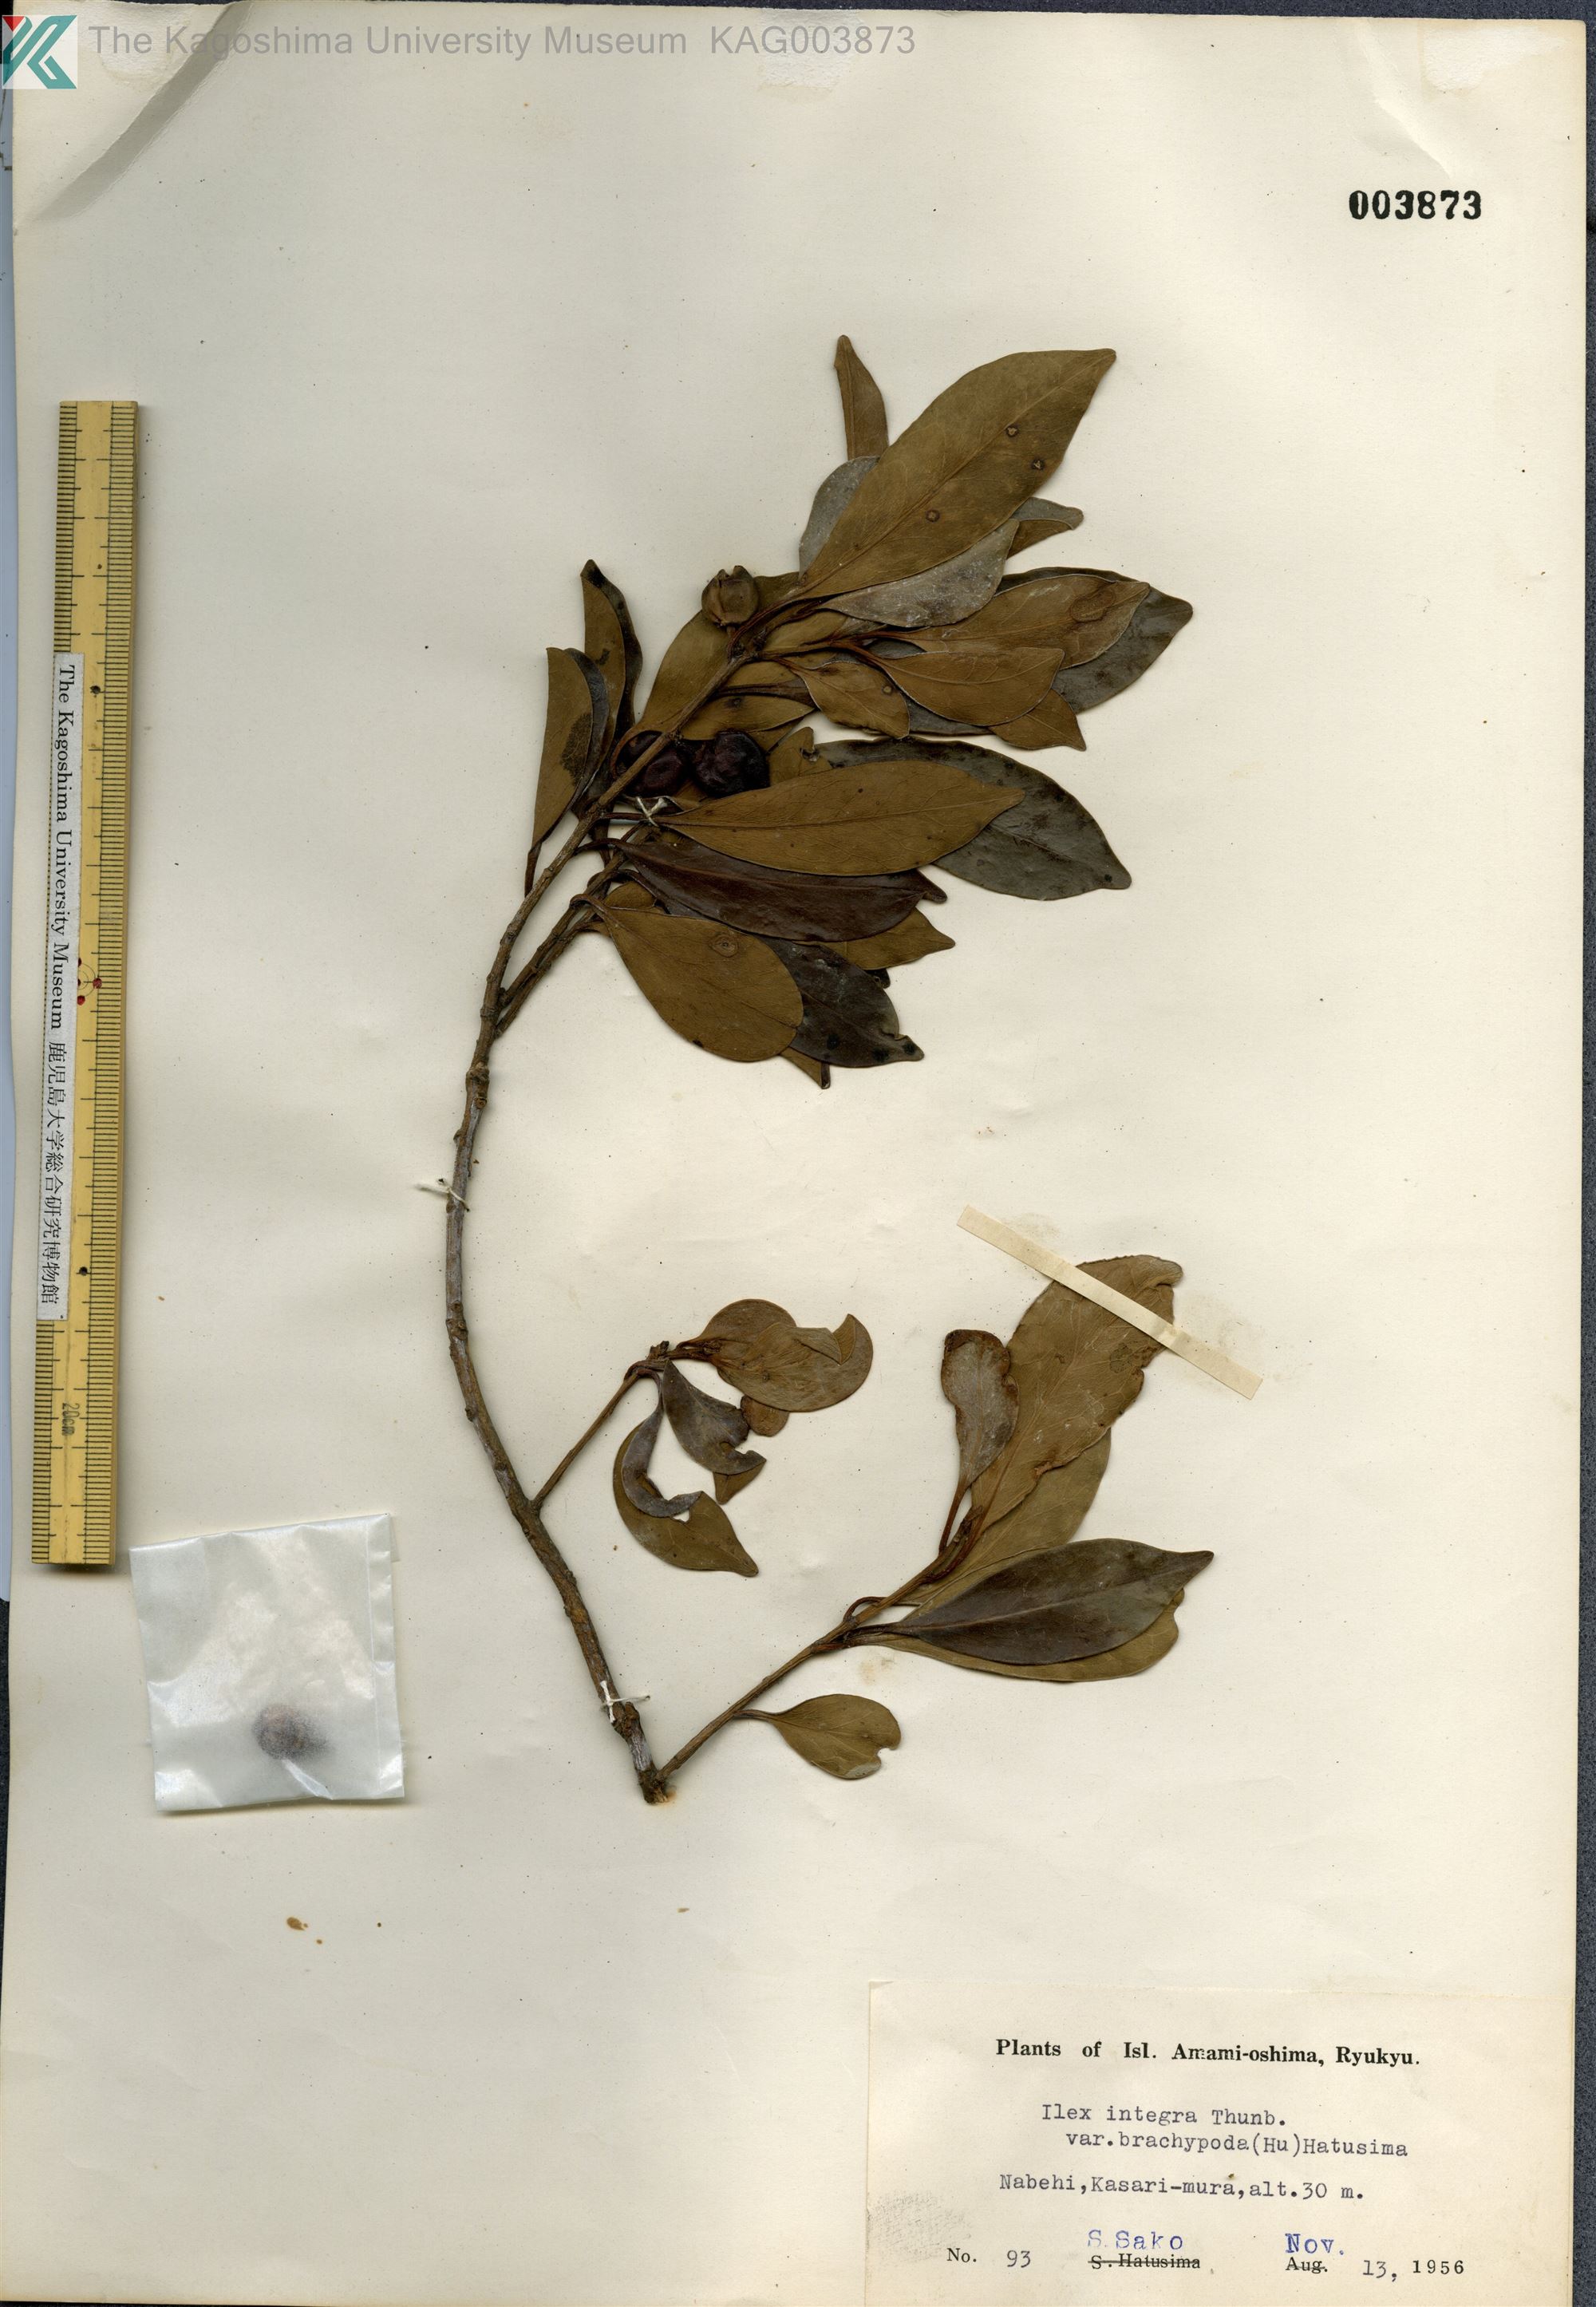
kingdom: Plantae
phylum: Tracheophyta
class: Magnoliopsida
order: Aquifoliales
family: Aquifoliaceae
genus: Ilex
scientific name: Ilex integra
